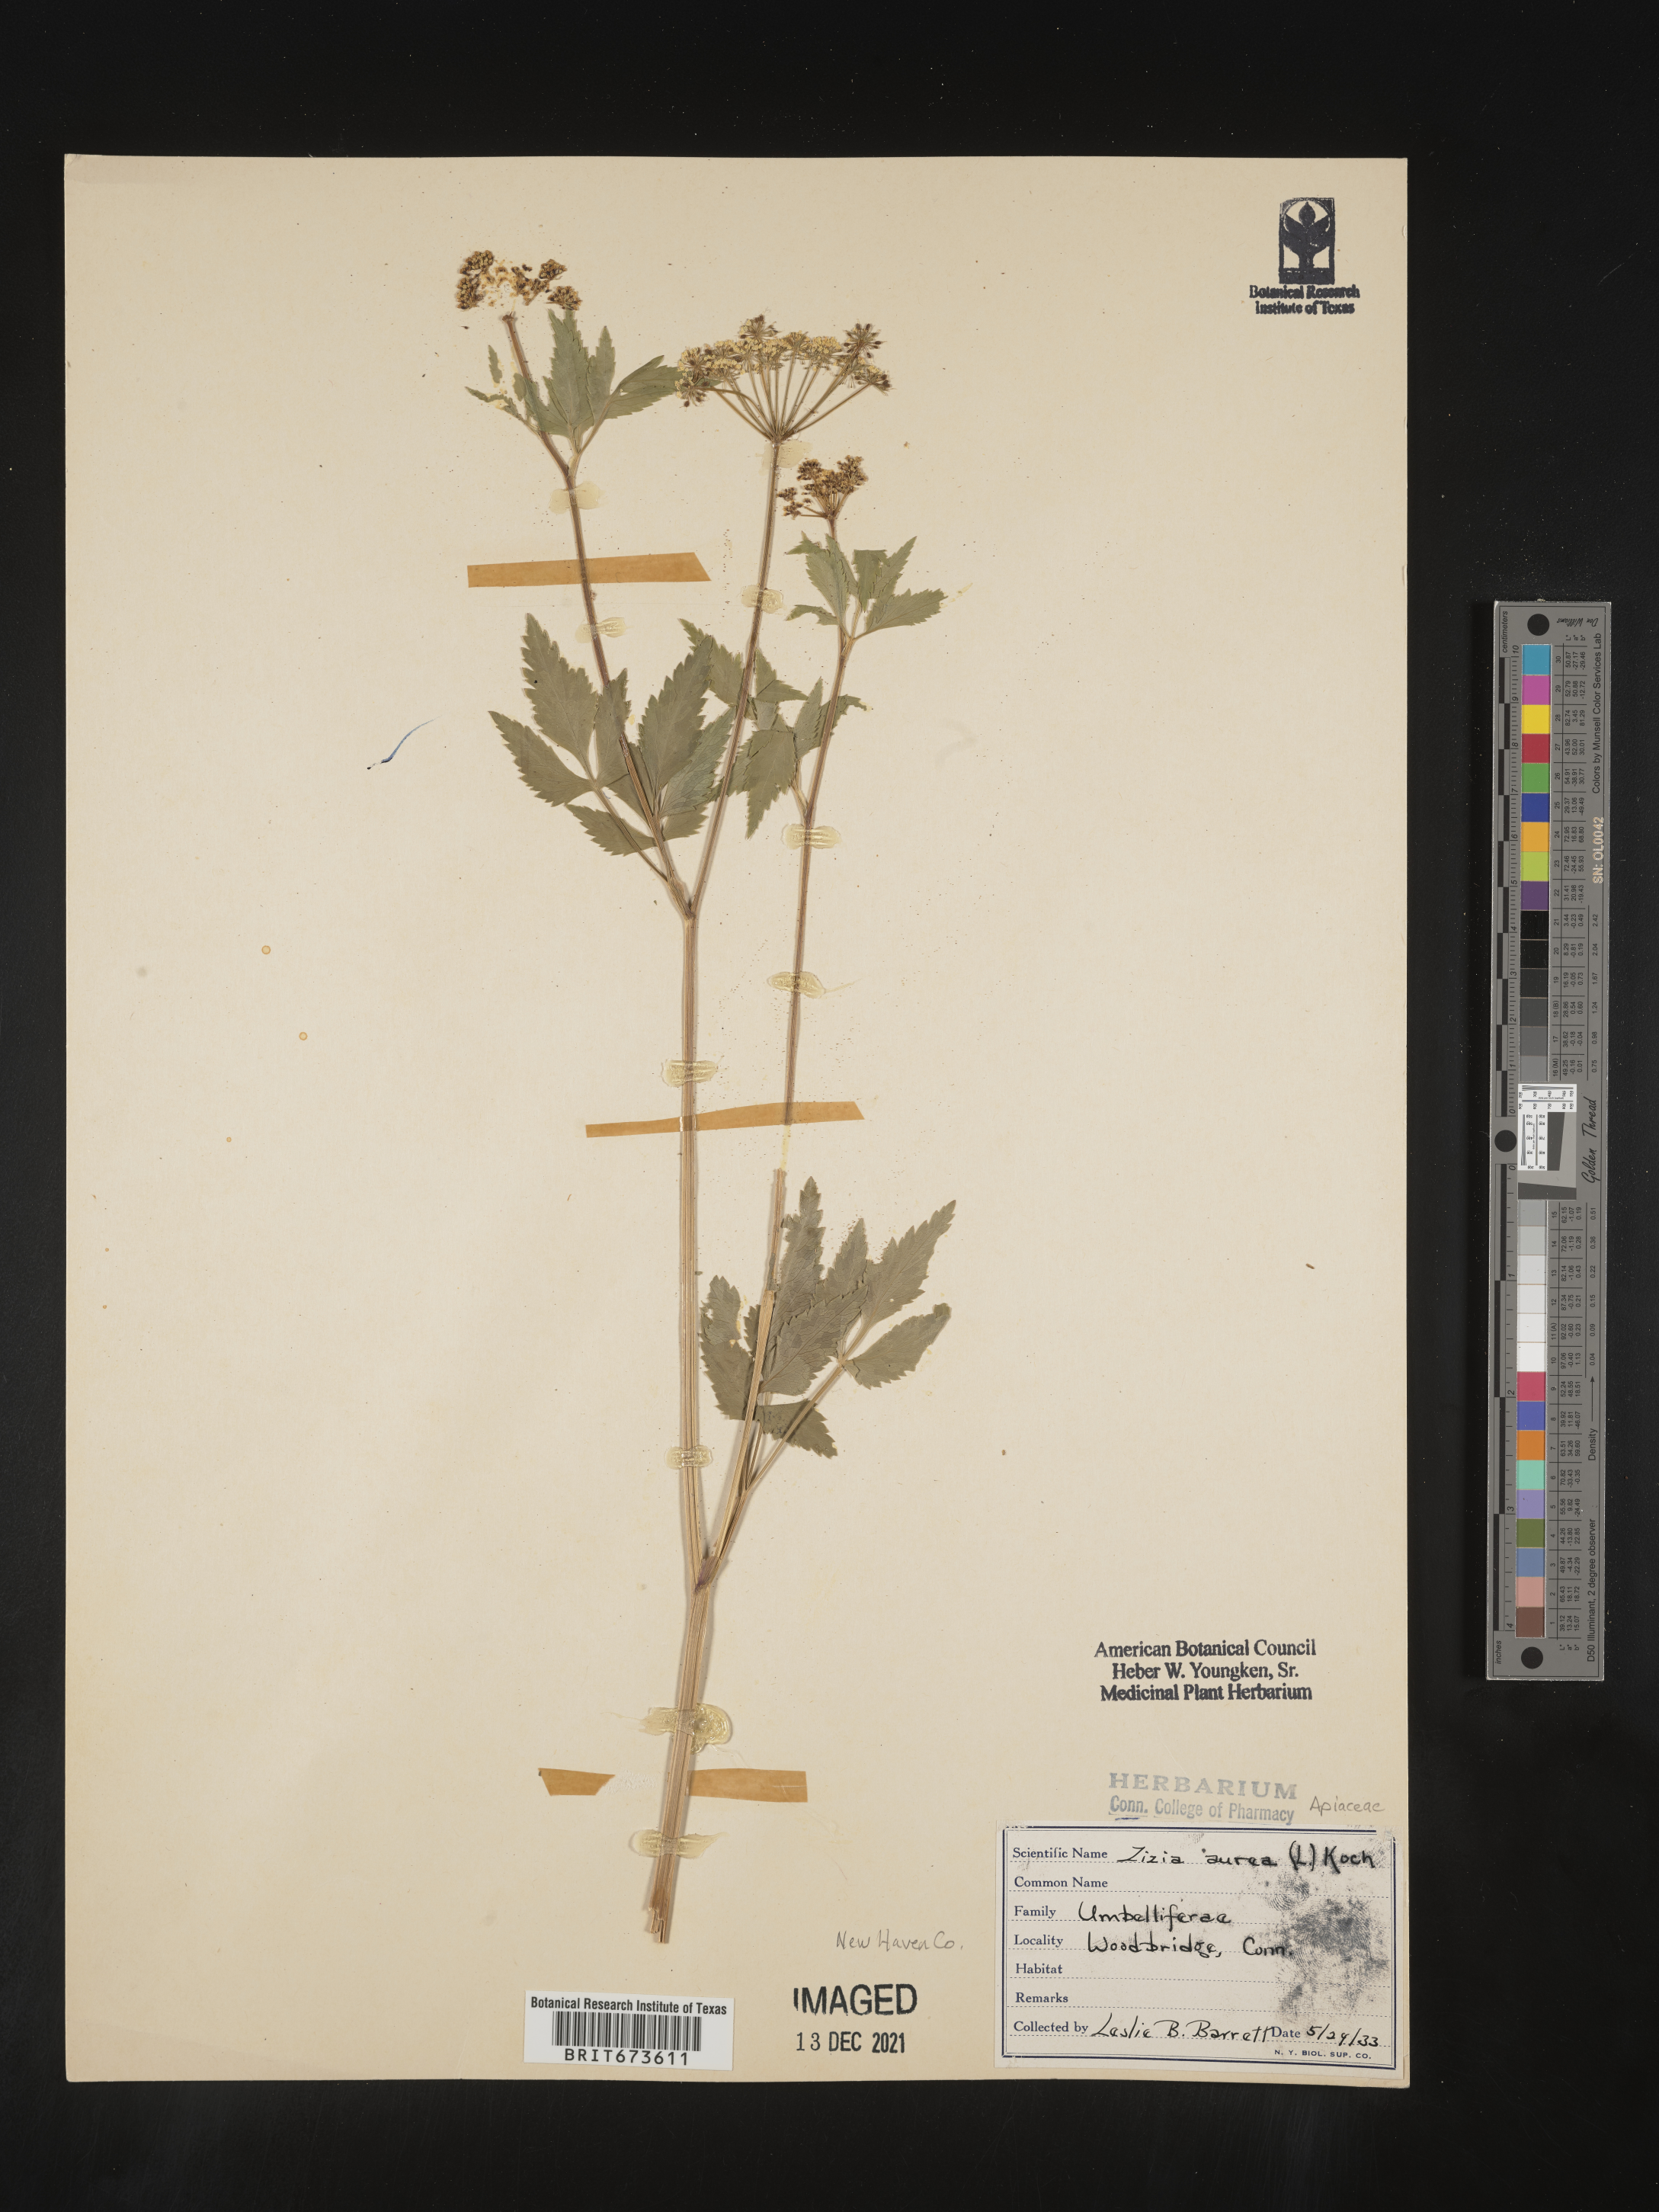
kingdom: Plantae
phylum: Tracheophyta
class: Magnoliopsida
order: Apiales
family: Apiaceae
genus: Zizia
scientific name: Zizia aurea
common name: Golden alexanders
